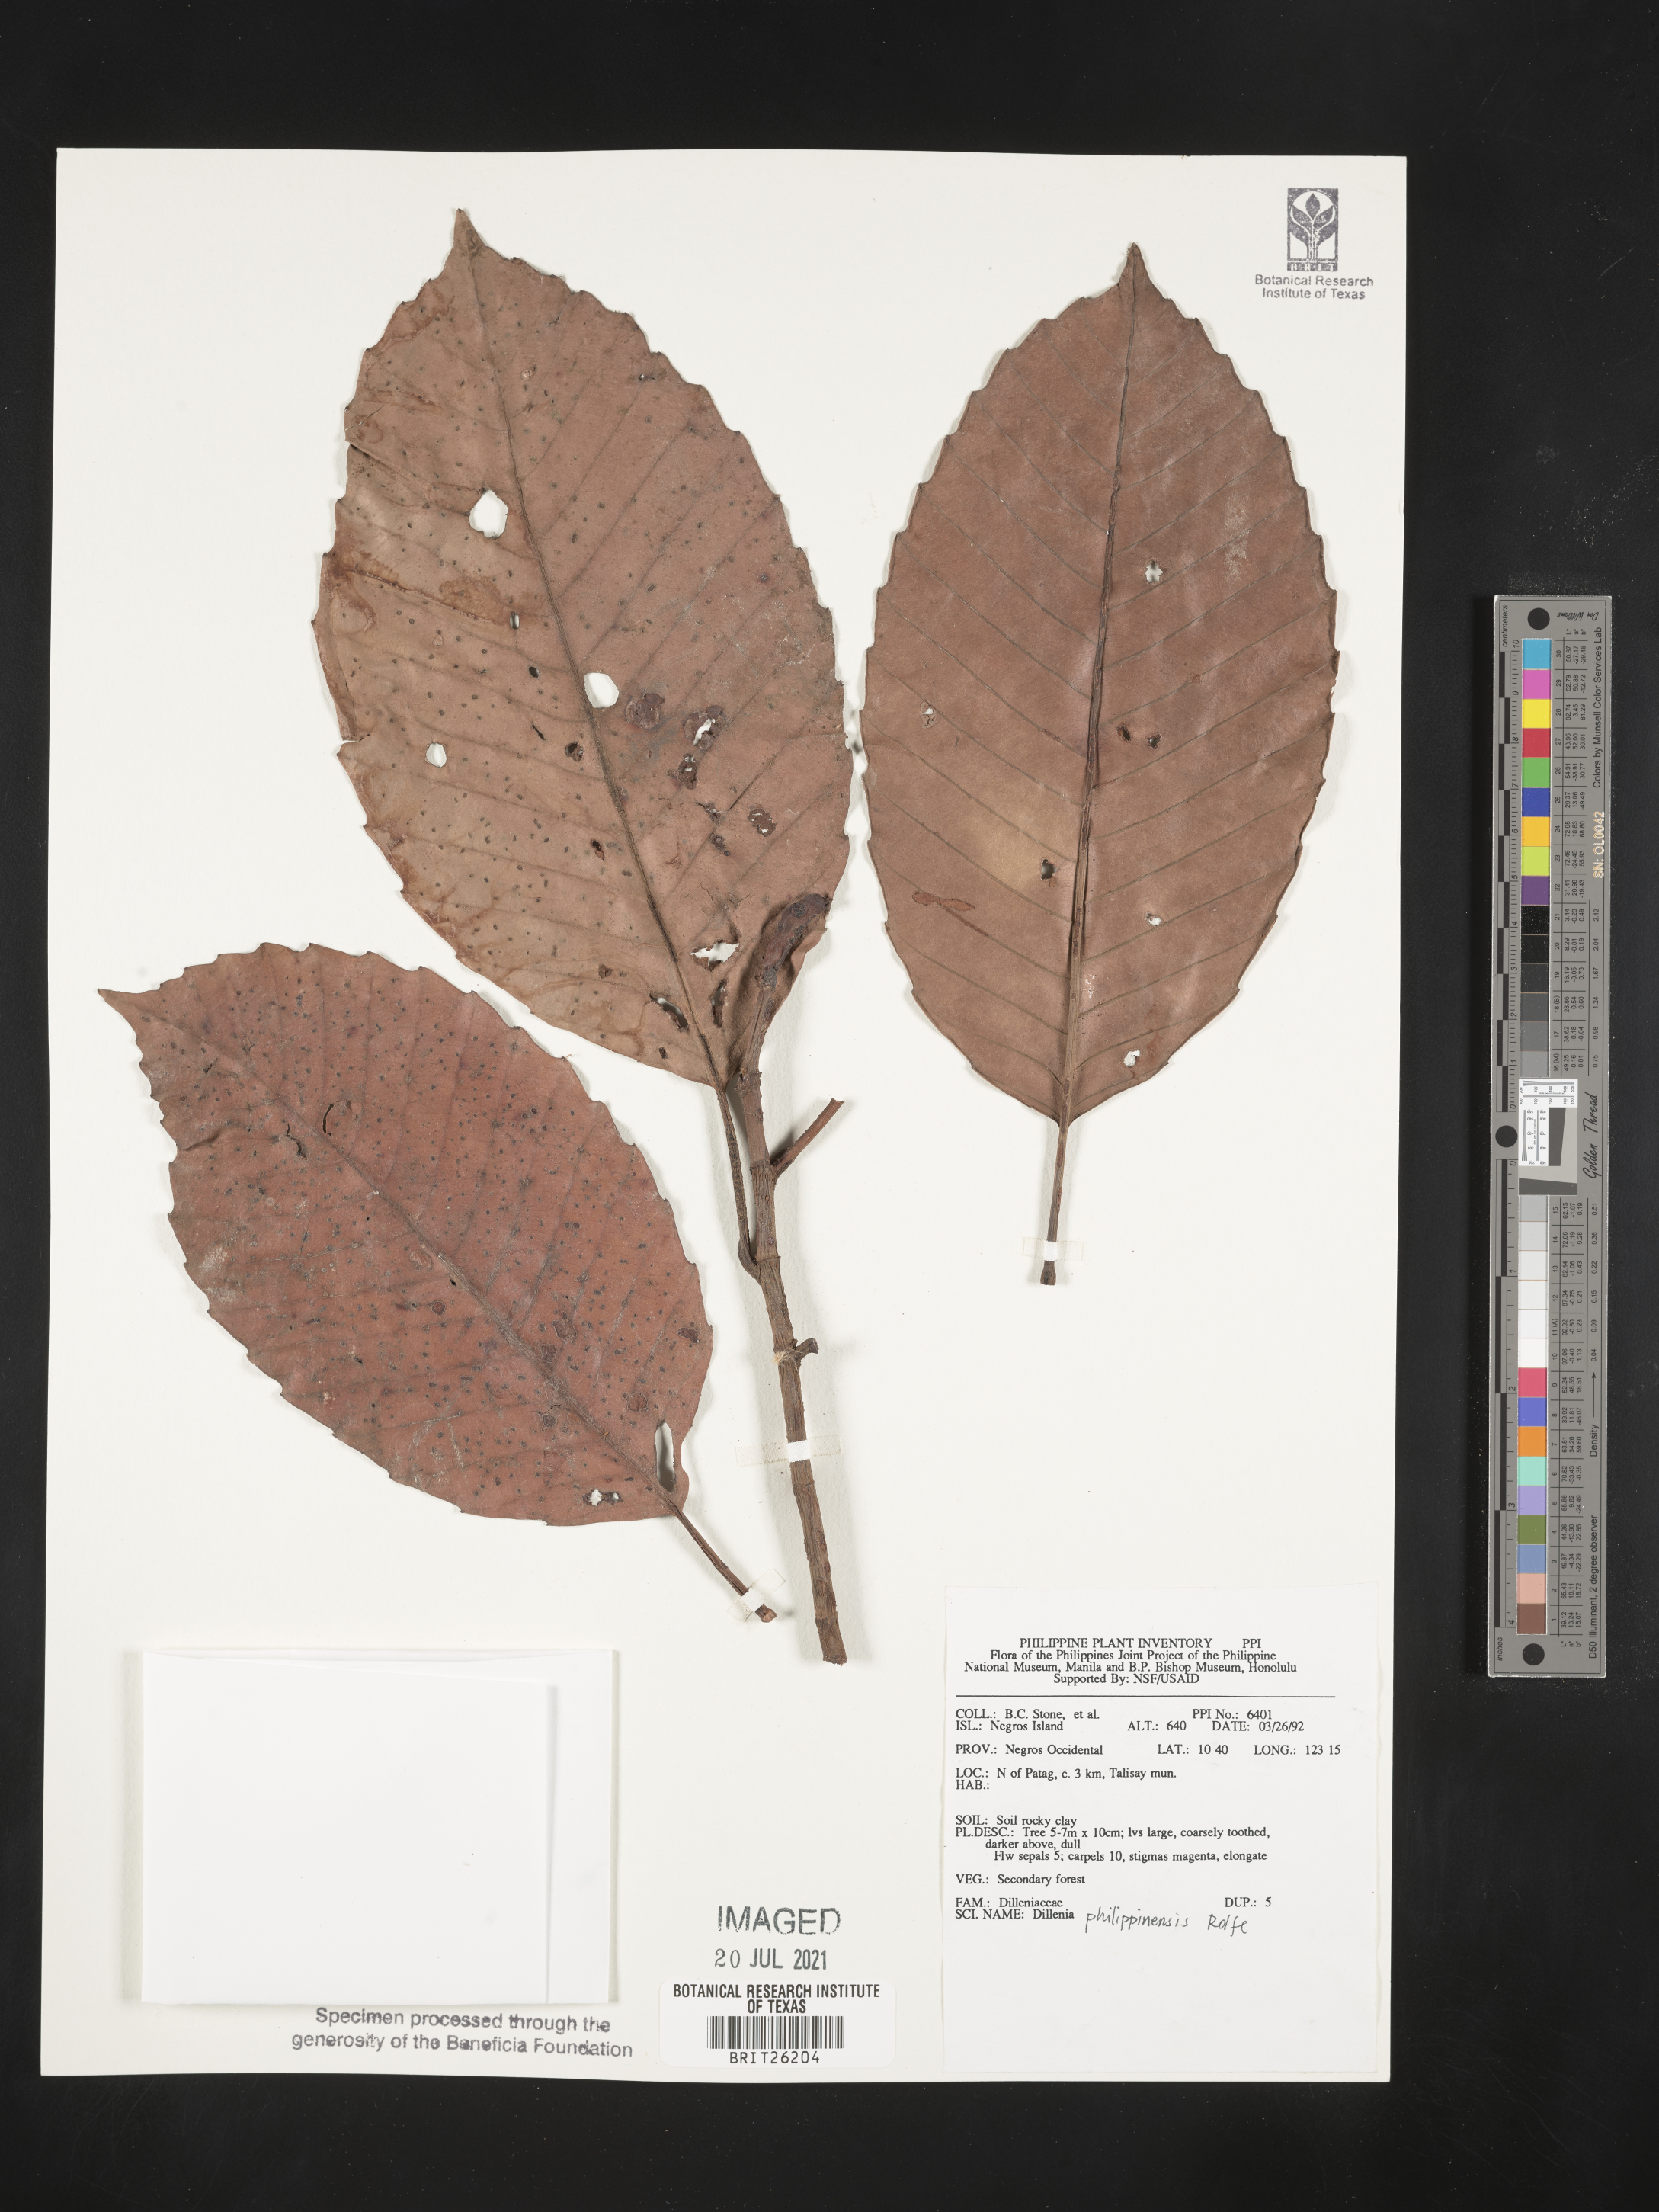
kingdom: Plantae
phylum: Tracheophyta
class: Magnoliopsida
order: Dilleniales
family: Dilleniaceae
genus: Dillenia
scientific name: Dillenia philippinensis
